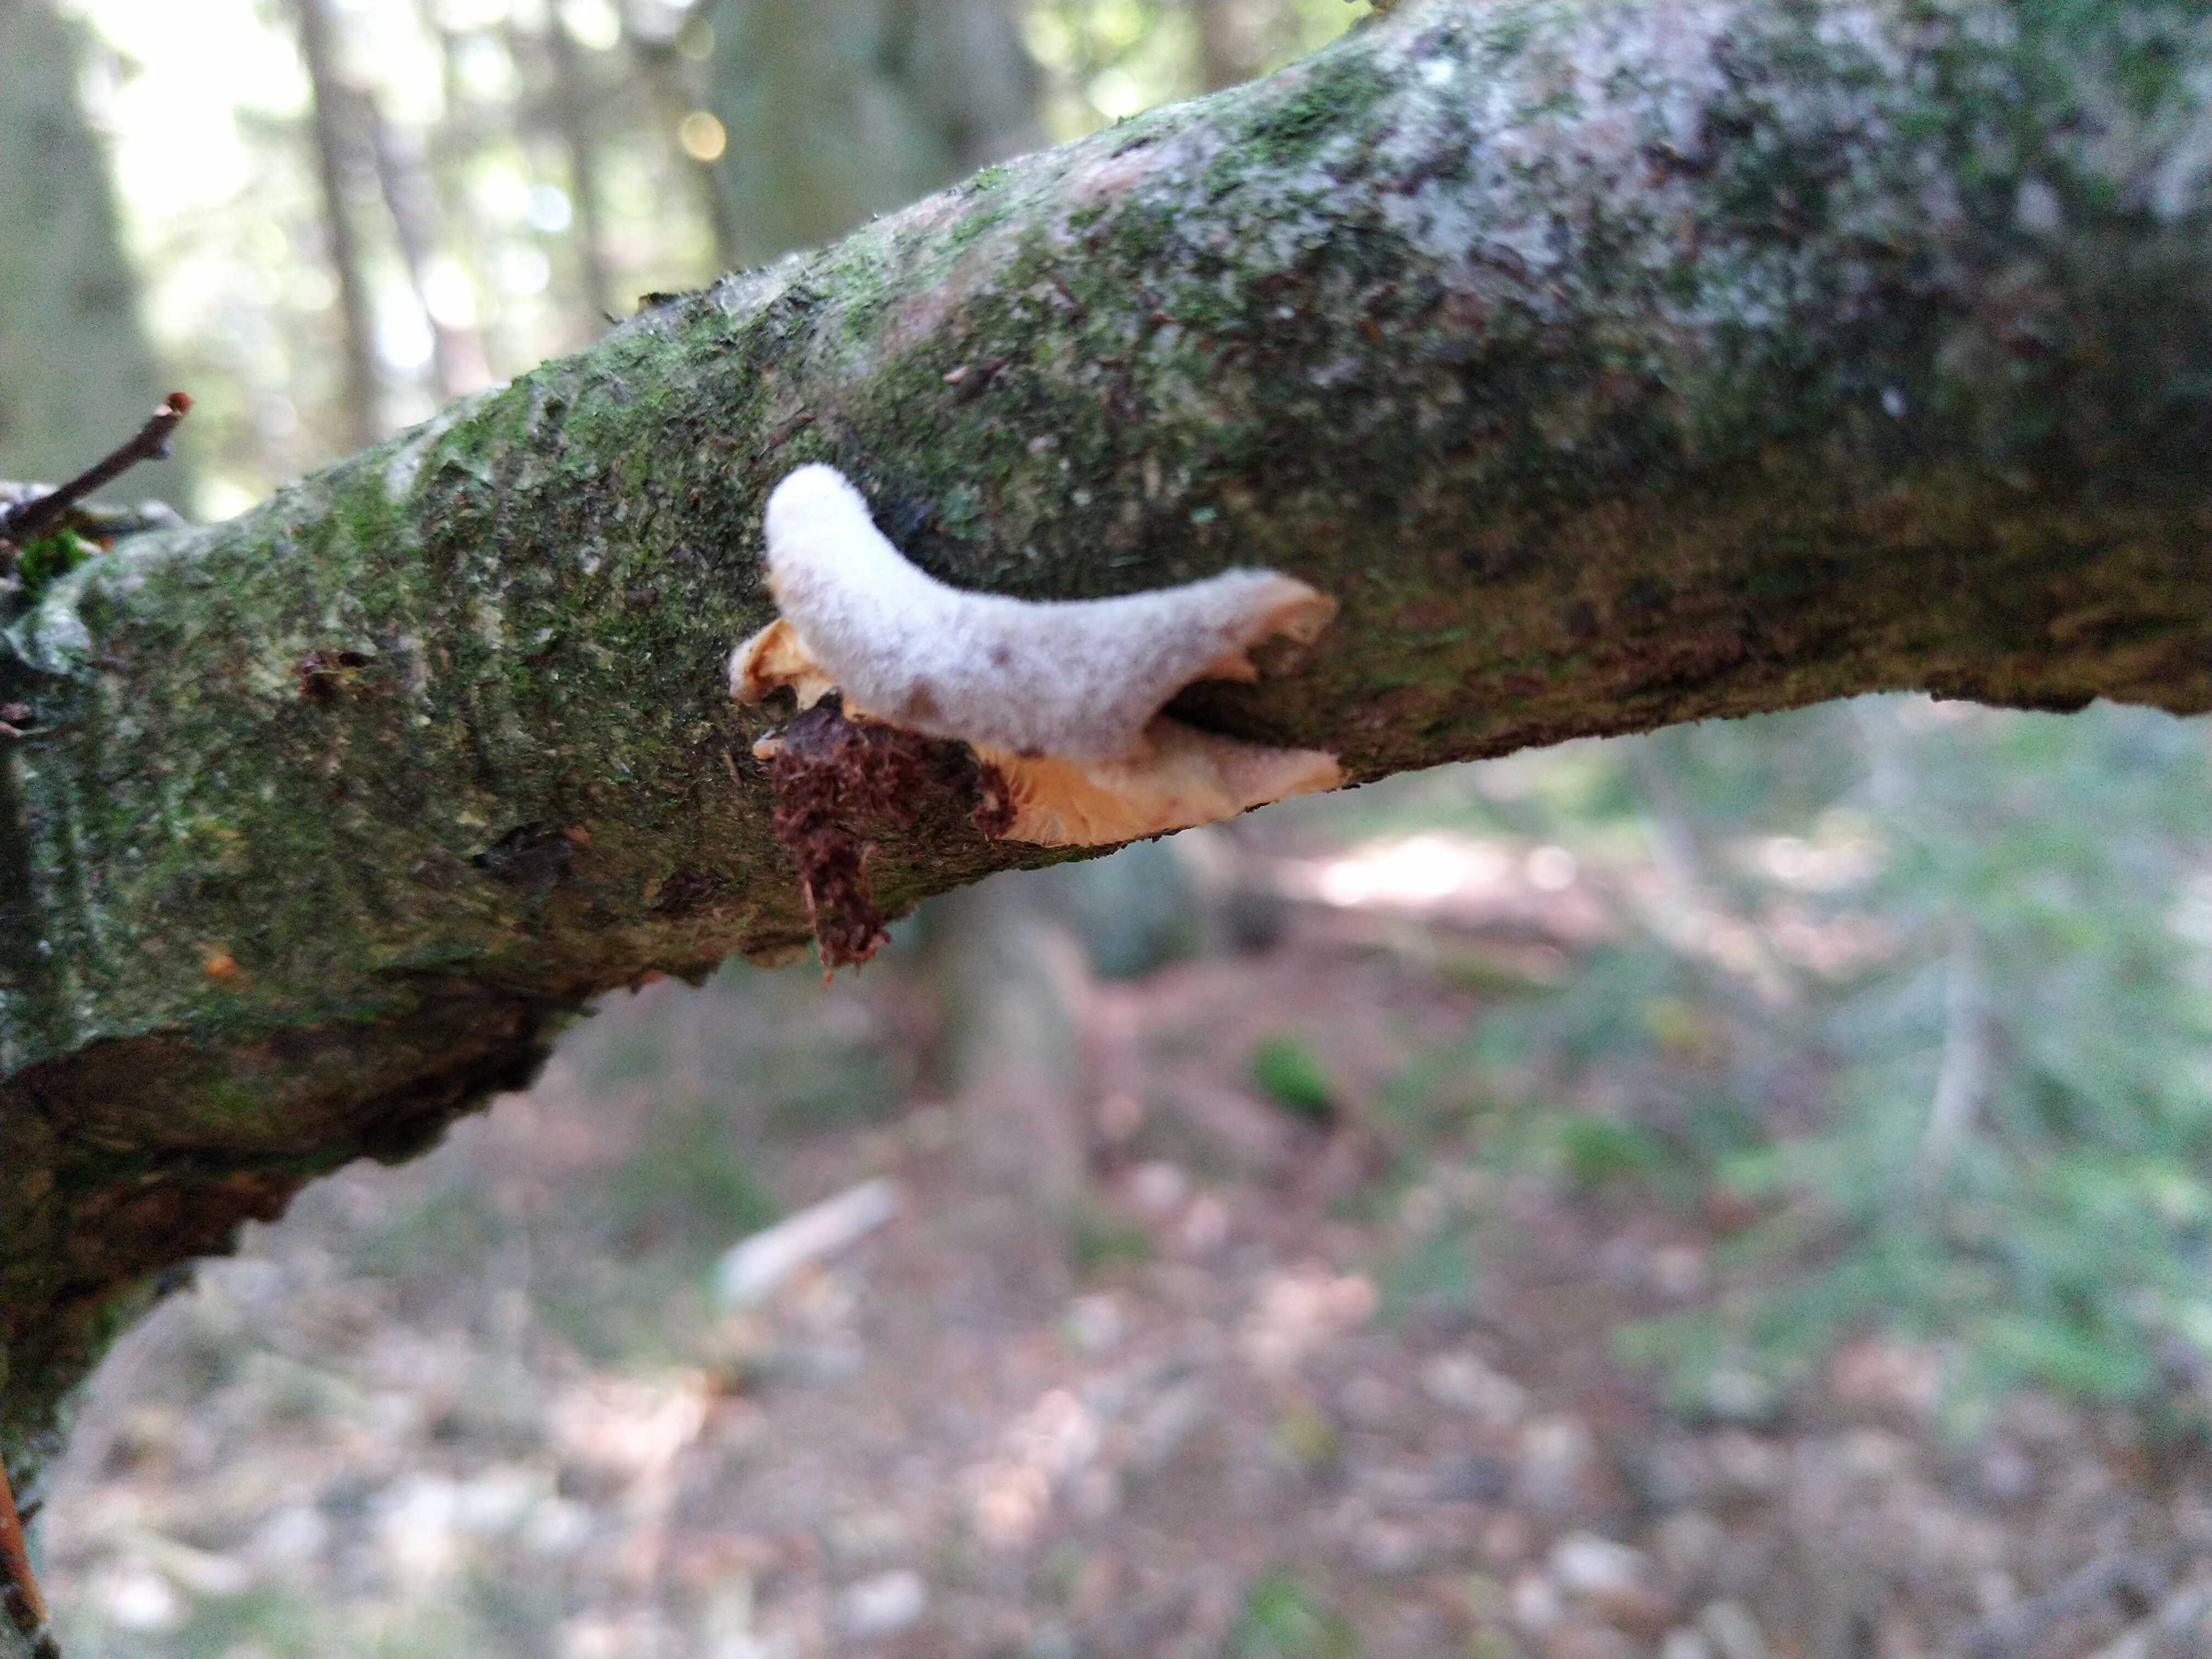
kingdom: Fungi
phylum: Basidiomycota
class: Agaricomycetes
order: Agaricales
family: Pleurotaceae
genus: Hohenbuehelia
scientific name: Hohenbuehelia
